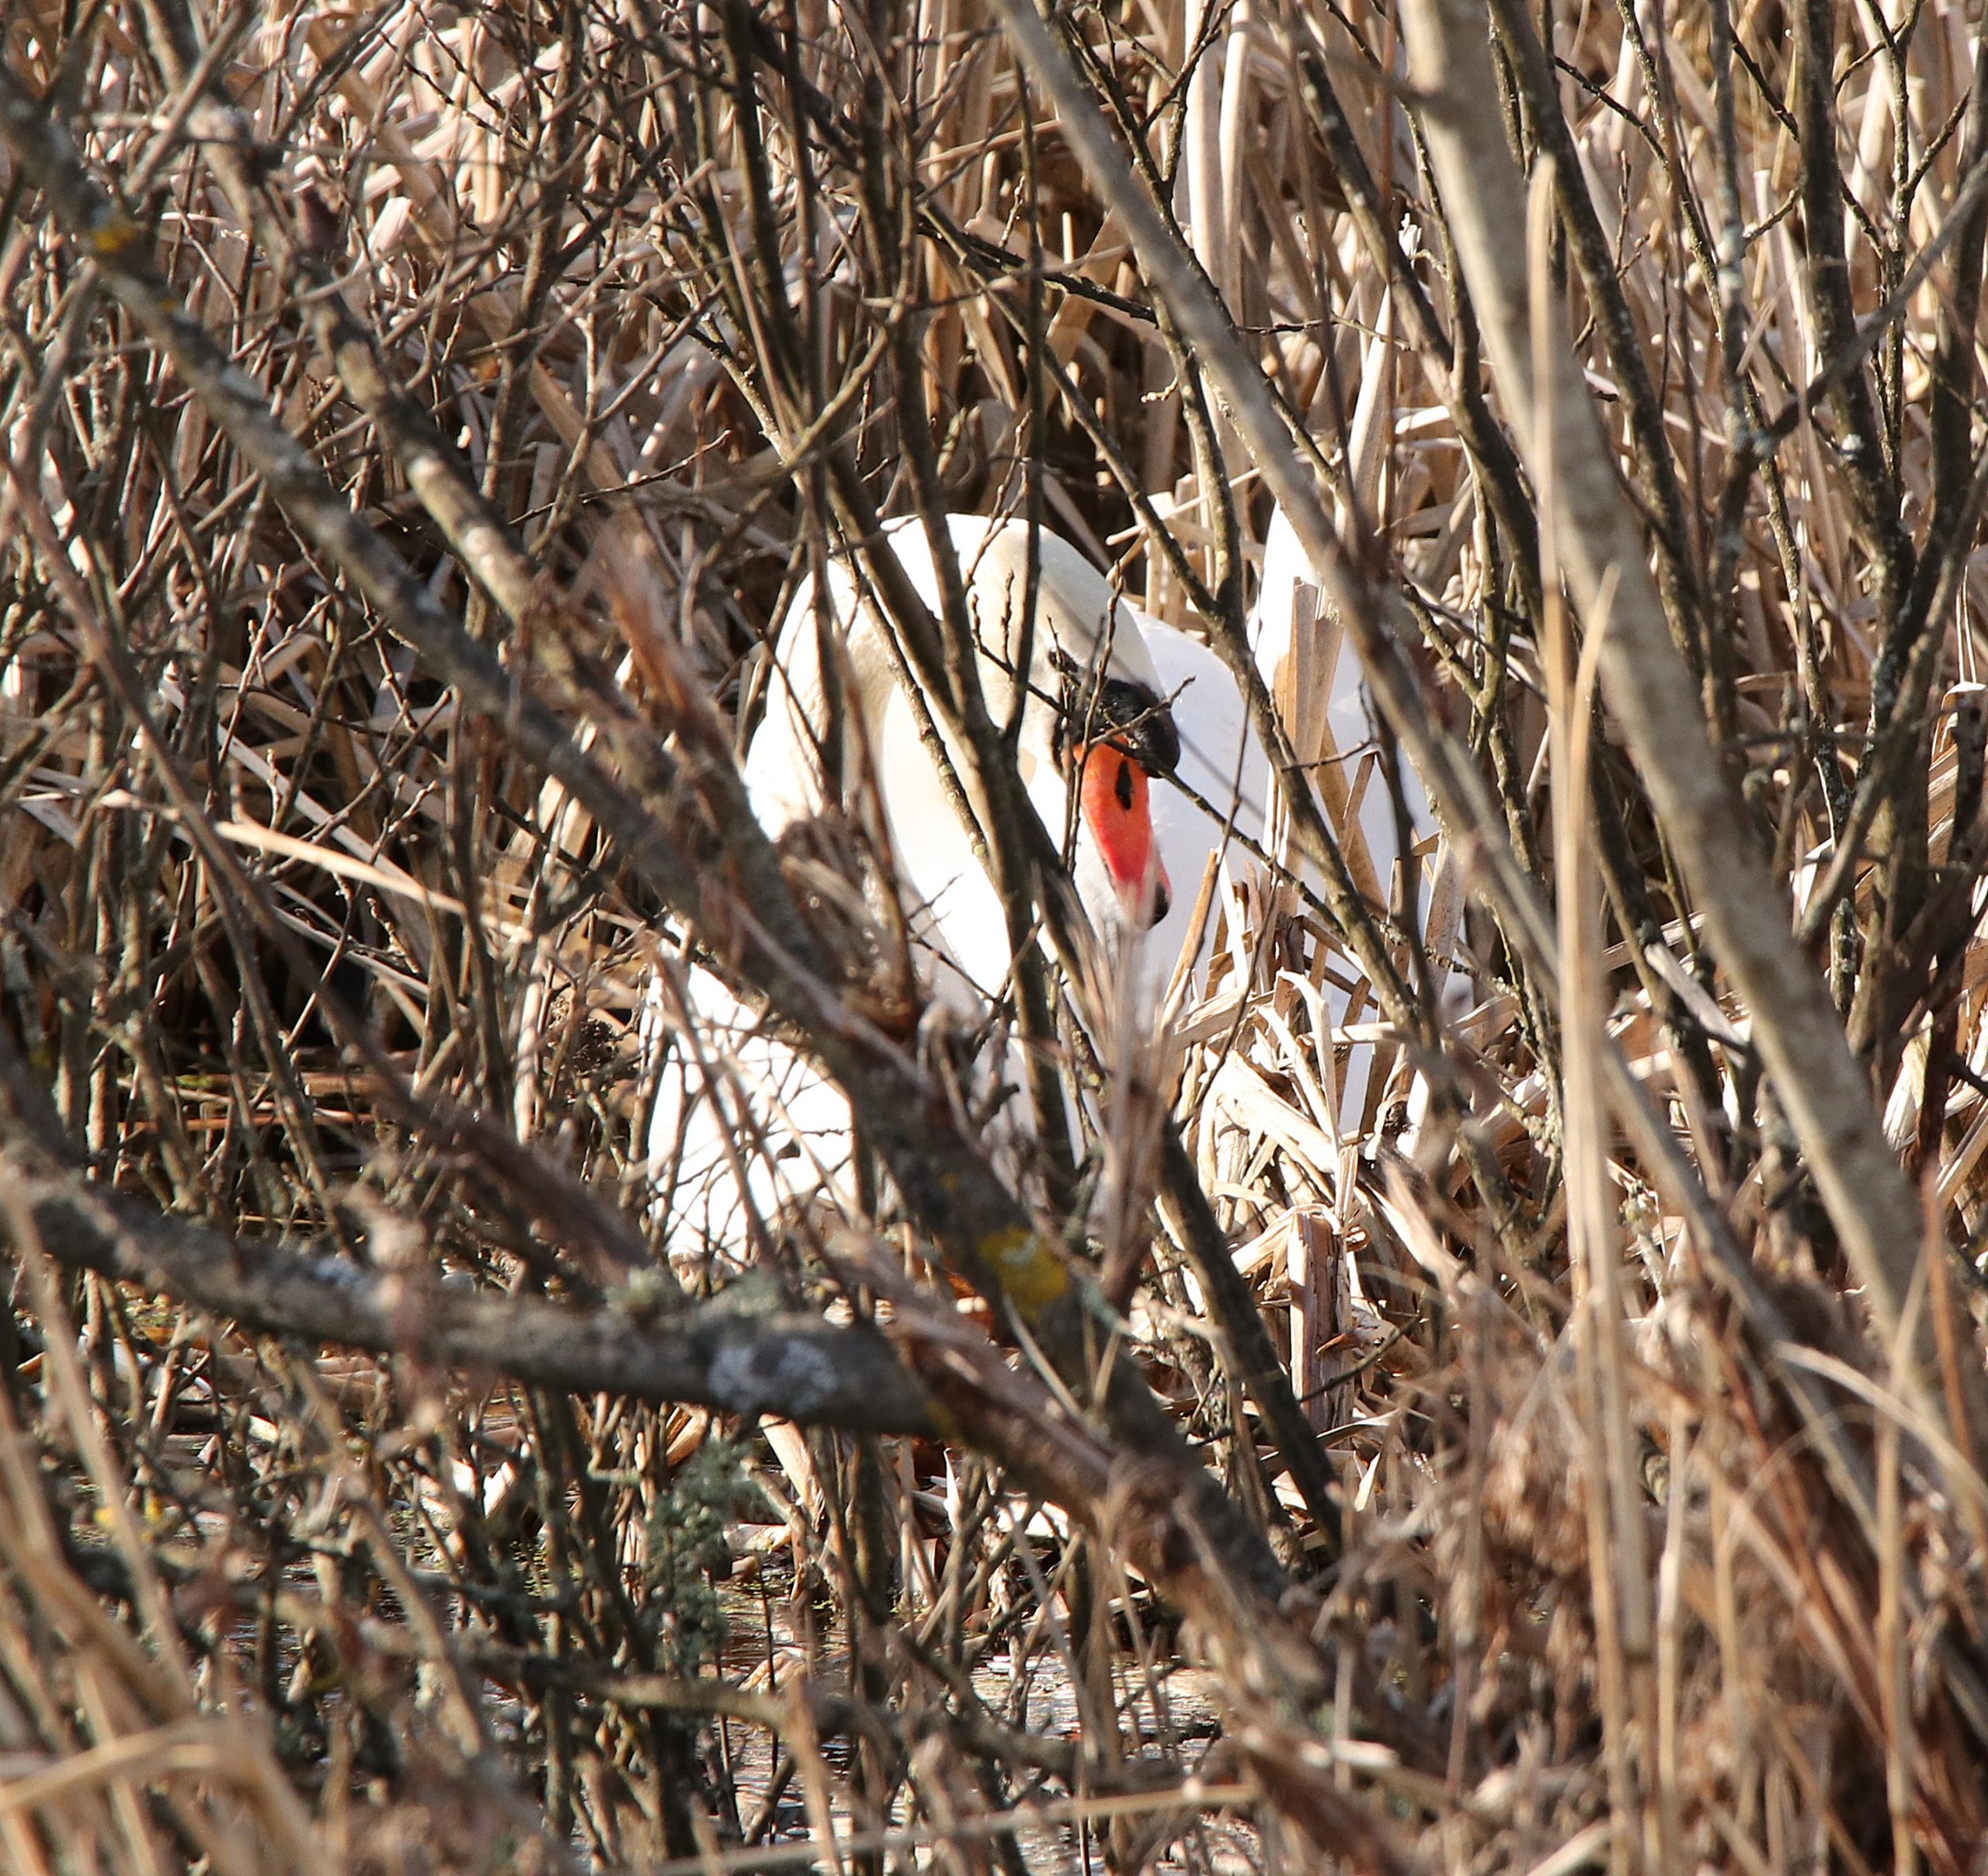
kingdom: Animalia
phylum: Chordata
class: Aves
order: Anseriformes
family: Anatidae
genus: Cygnus
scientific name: Cygnus olor
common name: Knopsvane
